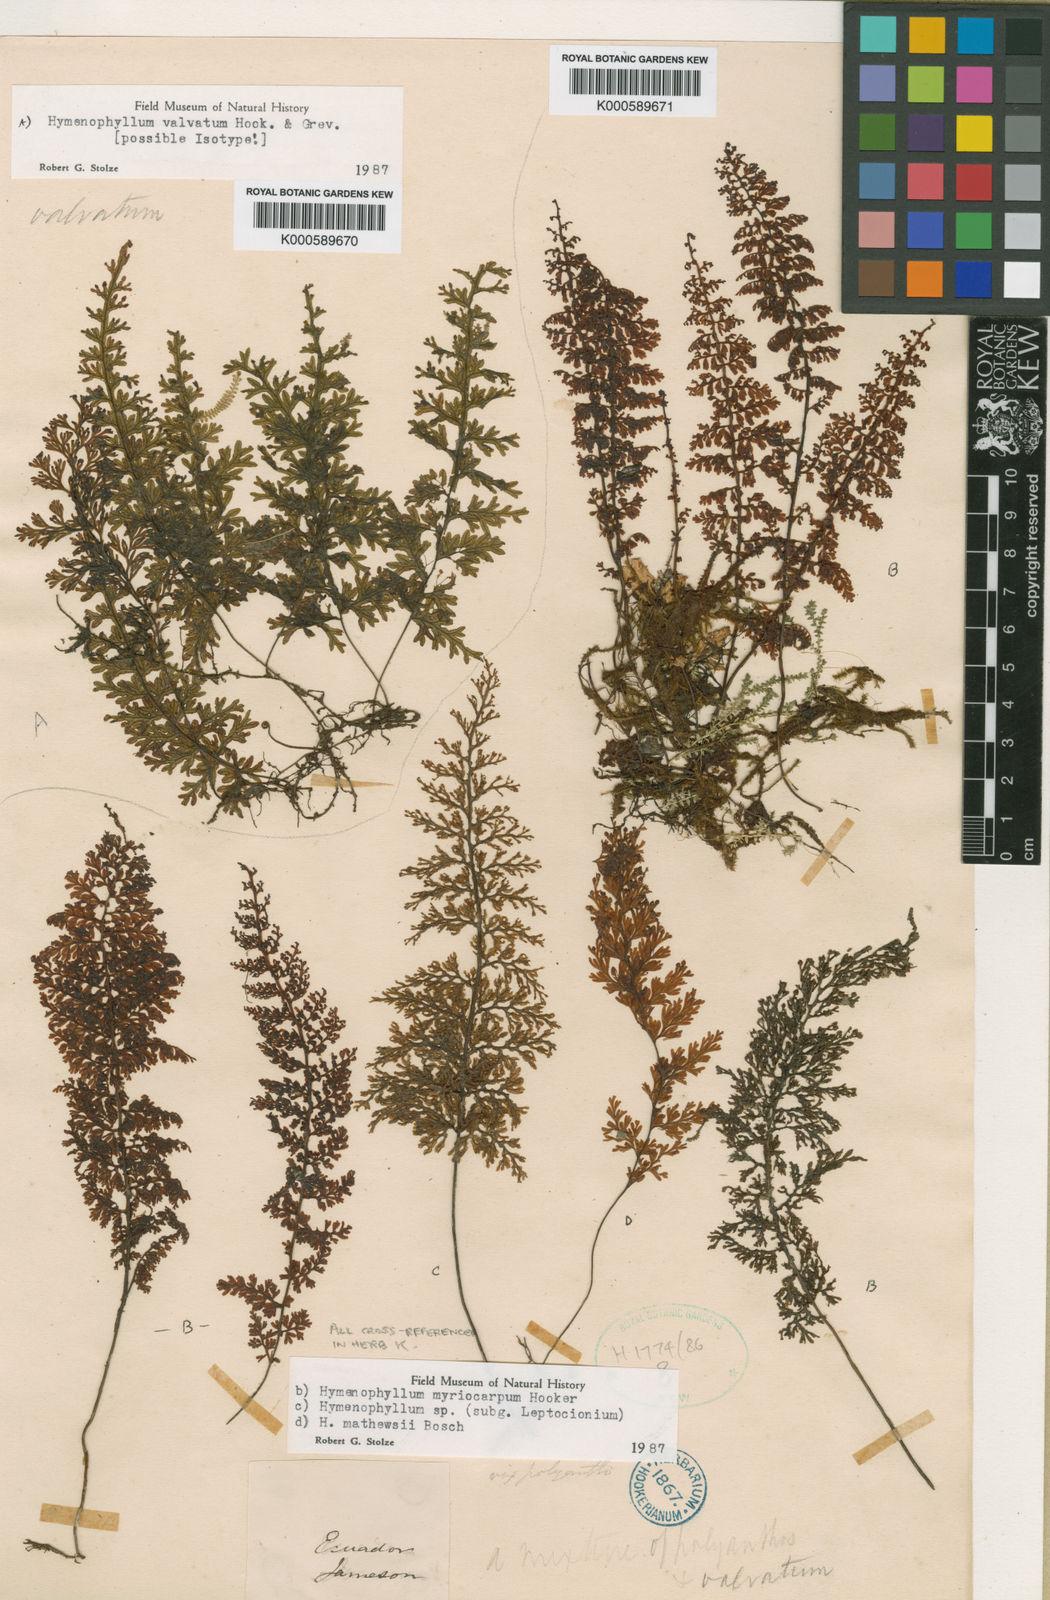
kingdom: Plantae
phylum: Tracheophyta
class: Polypodiopsida
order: Hymenophyllales
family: Hymenophyllaceae
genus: Hymenophyllum
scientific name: Hymenophyllum valvatum
